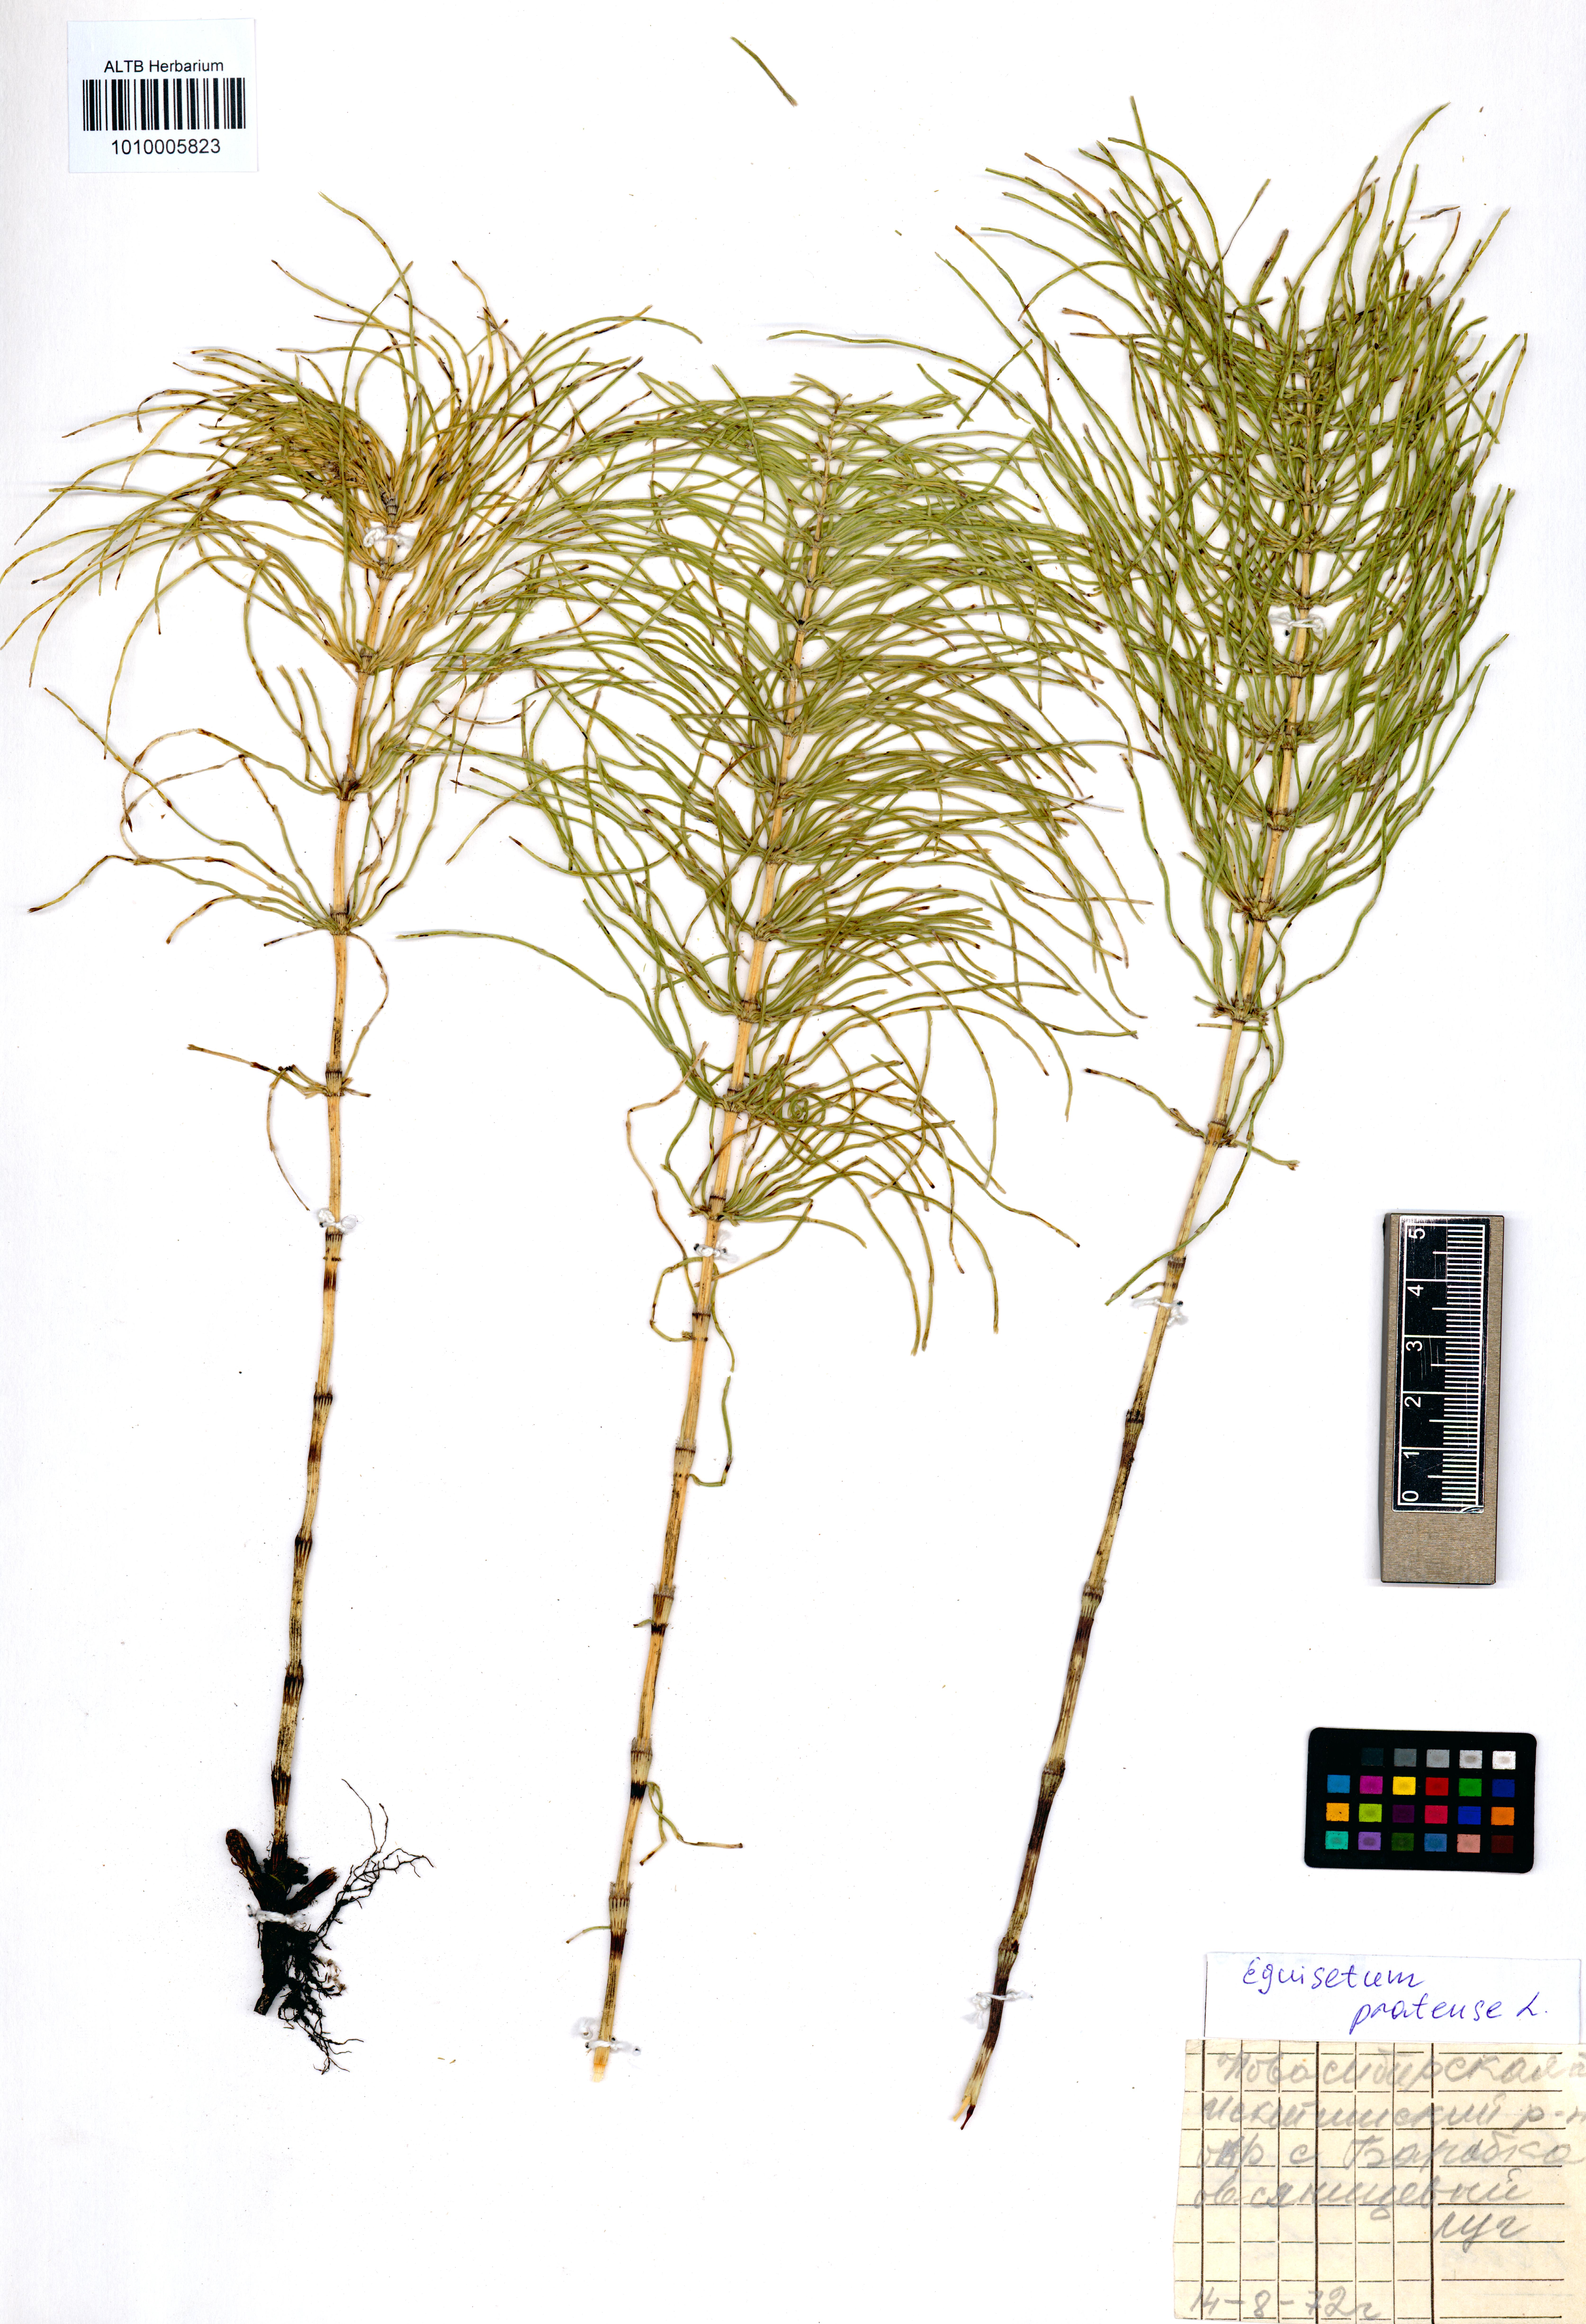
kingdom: Plantae
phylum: Tracheophyta
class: Polypodiopsida
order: Equisetales
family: Equisetaceae
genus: Equisetum
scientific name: Equisetum pratense
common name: Meadow horsetail
